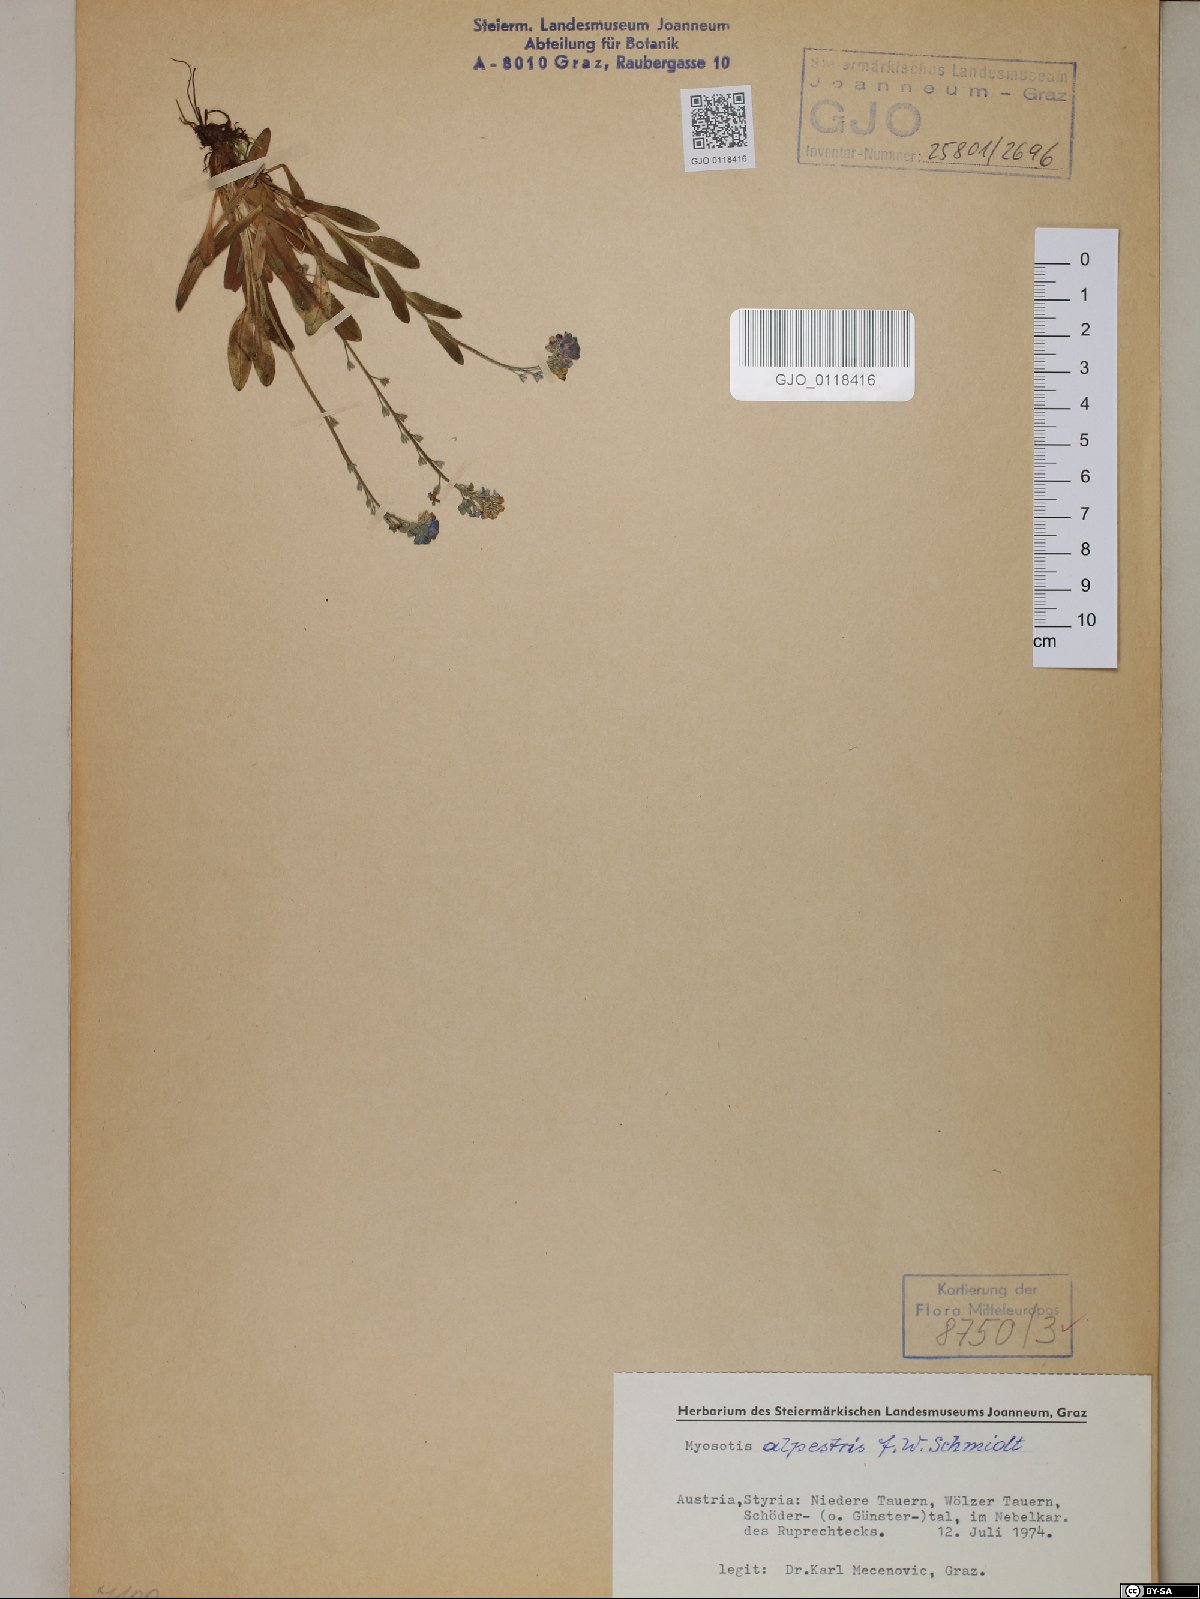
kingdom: Plantae
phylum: Tracheophyta
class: Magnoliopsida
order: Boraginales
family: Boraginaceae
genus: Myosotis
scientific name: Myosotis alpestris
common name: Alpine forget-me-not
